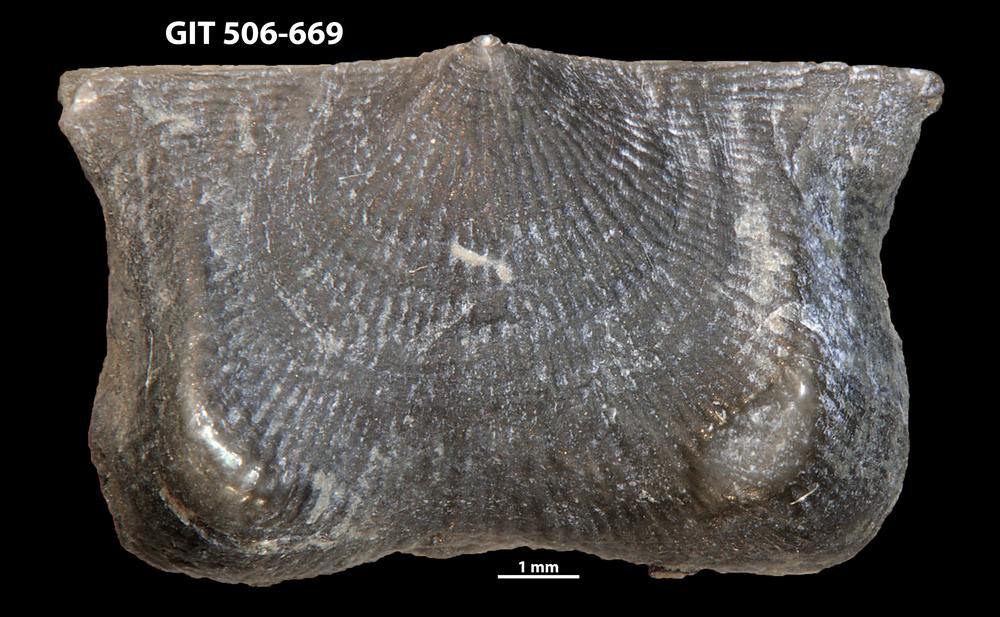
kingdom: Animalia
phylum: Brachiopoda
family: Strophomenidae
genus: Leptaena
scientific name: Leptaena altera
